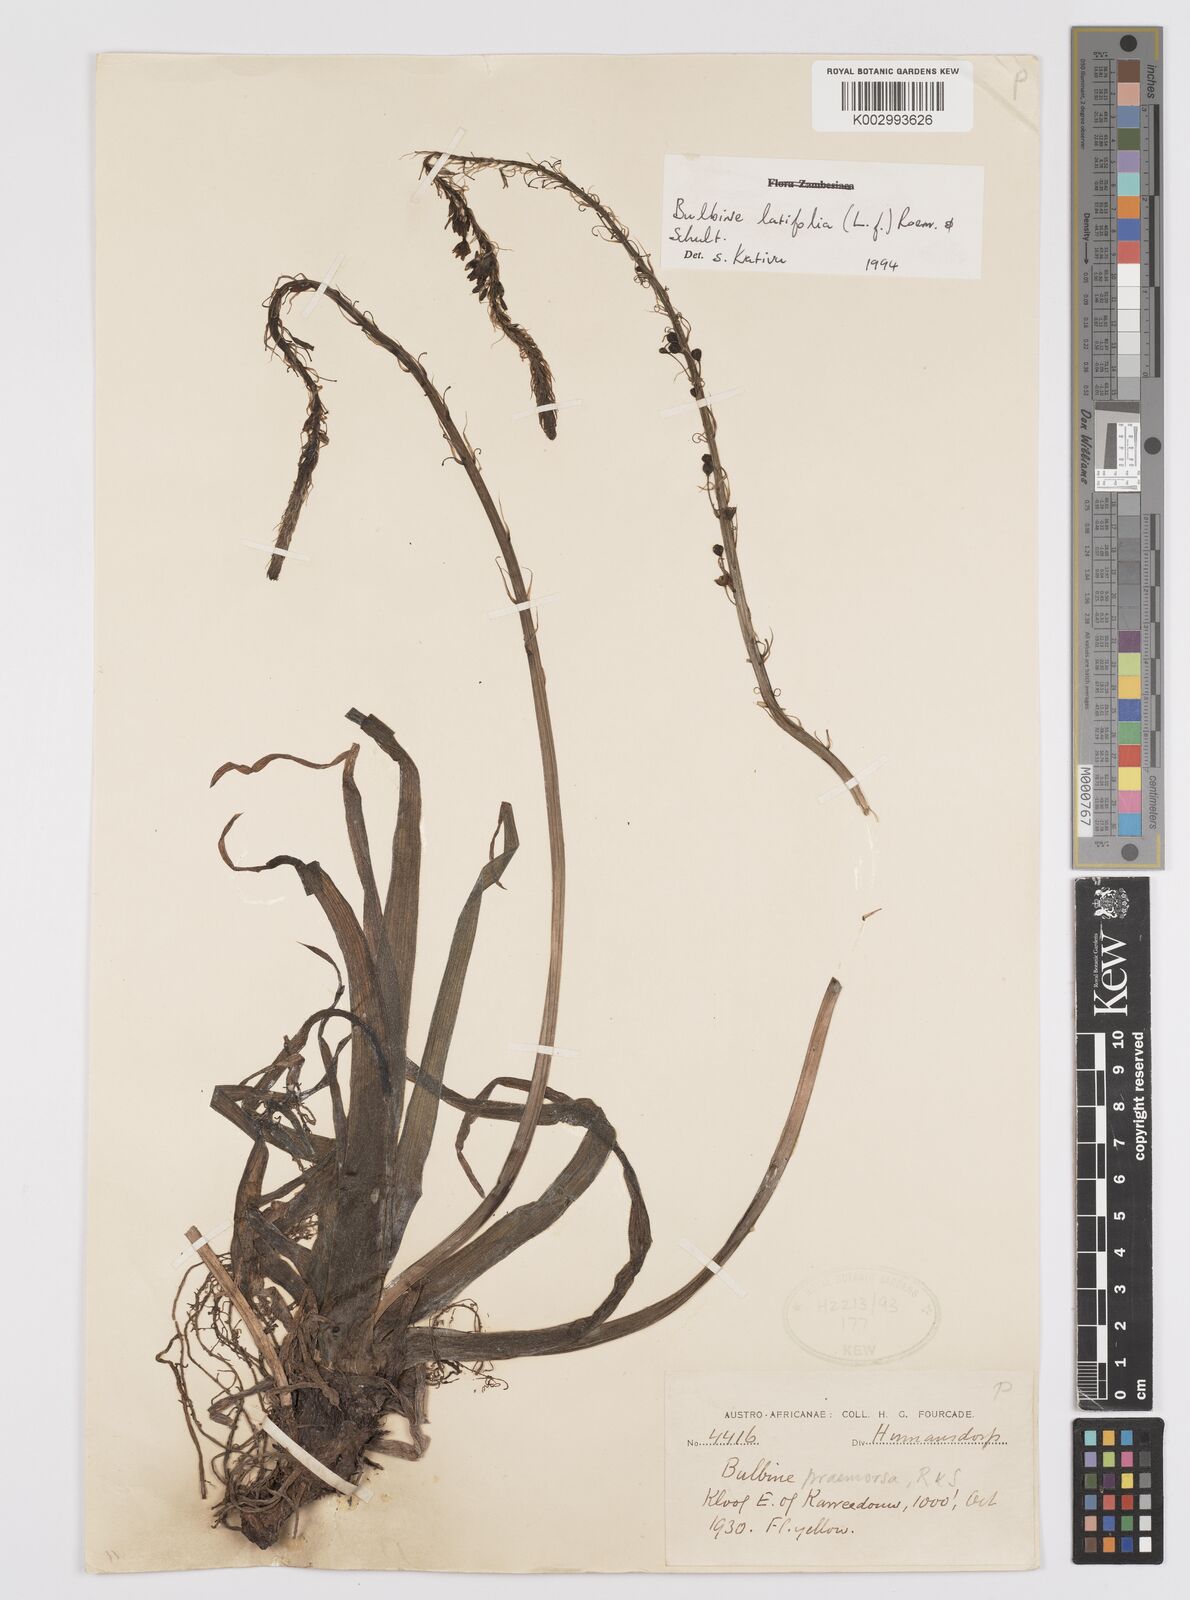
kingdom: Plantae
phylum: Tracheophyta
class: Liliopsida
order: Asparagales
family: Asphodelaceae
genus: Bulbine
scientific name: Bulbine latifolia
